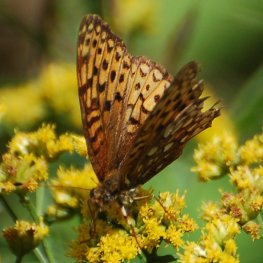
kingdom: Animalia
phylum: Arthropoda
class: Insecta
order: Lepidoptera
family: Nymphalidae
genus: Speyeria
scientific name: Speyeria atlantis
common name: Atlantis Fritillary
